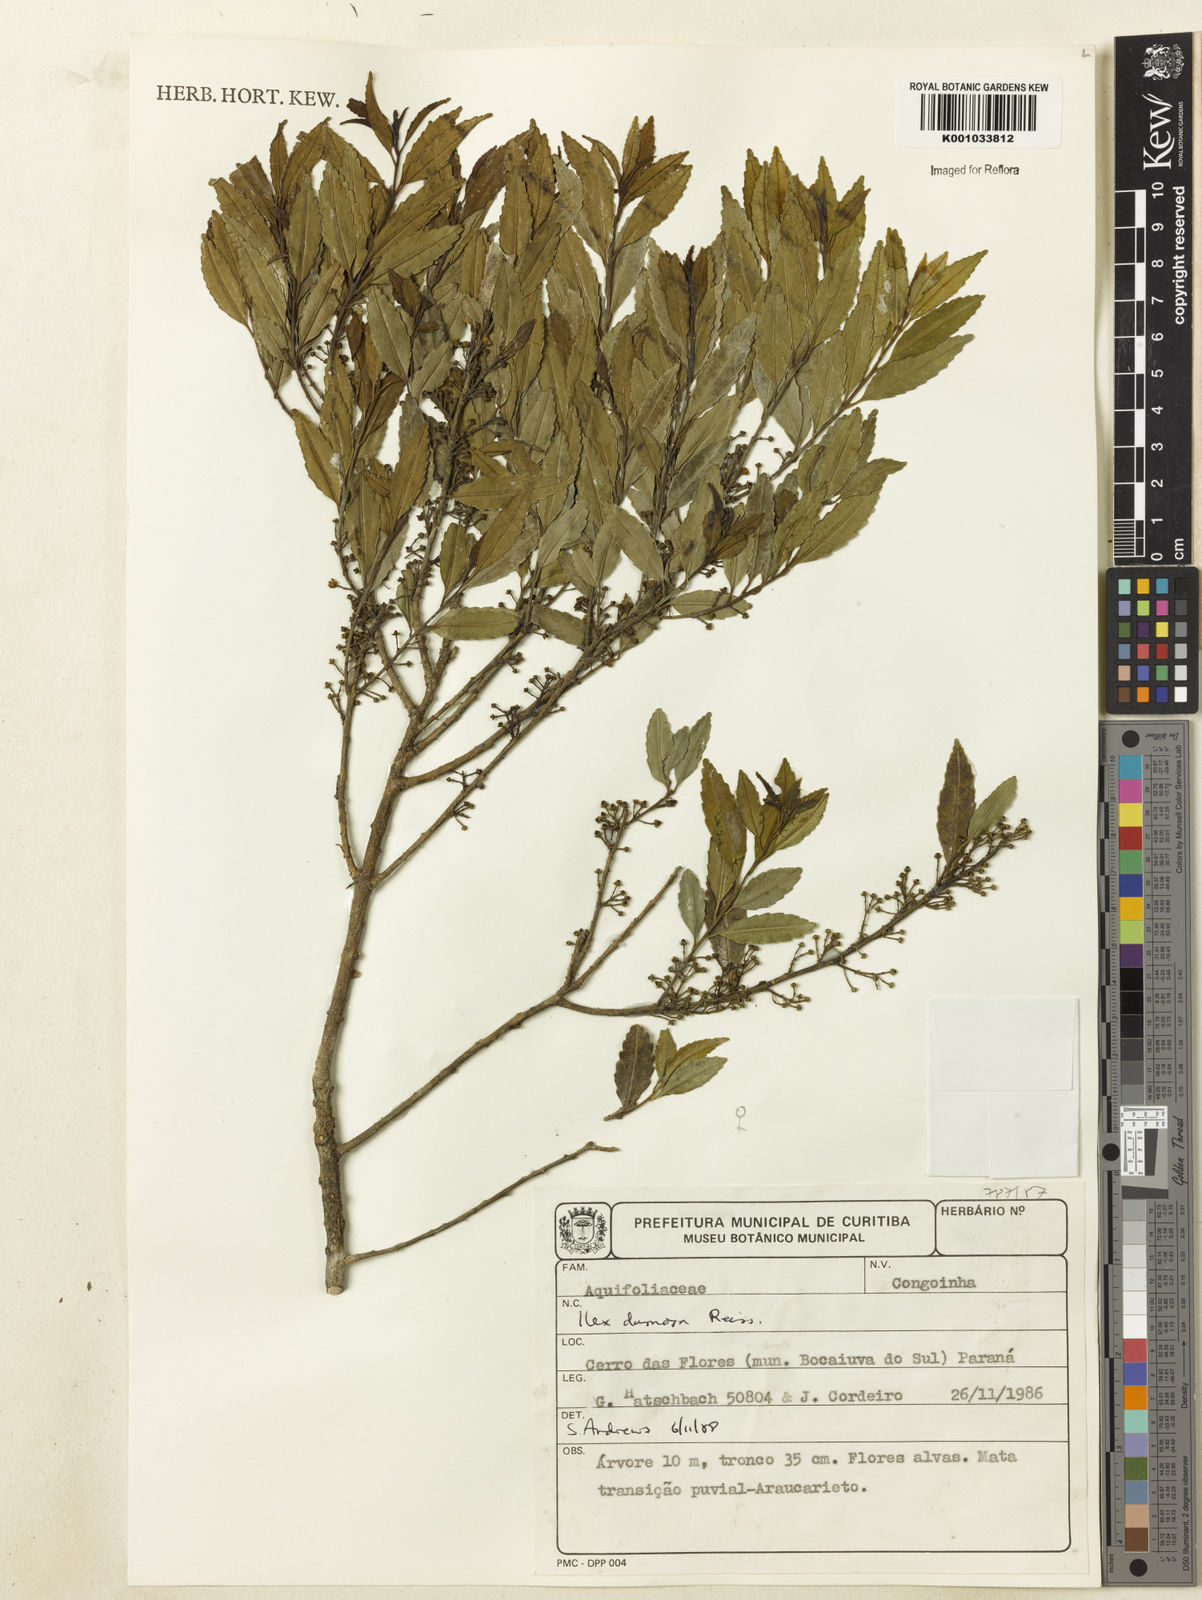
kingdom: Plantae
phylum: Tracheophyta
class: Magnoliopsida
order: Aquifoliales
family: Aquifoliaceae
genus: Ilex
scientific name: Ilex dumosa
